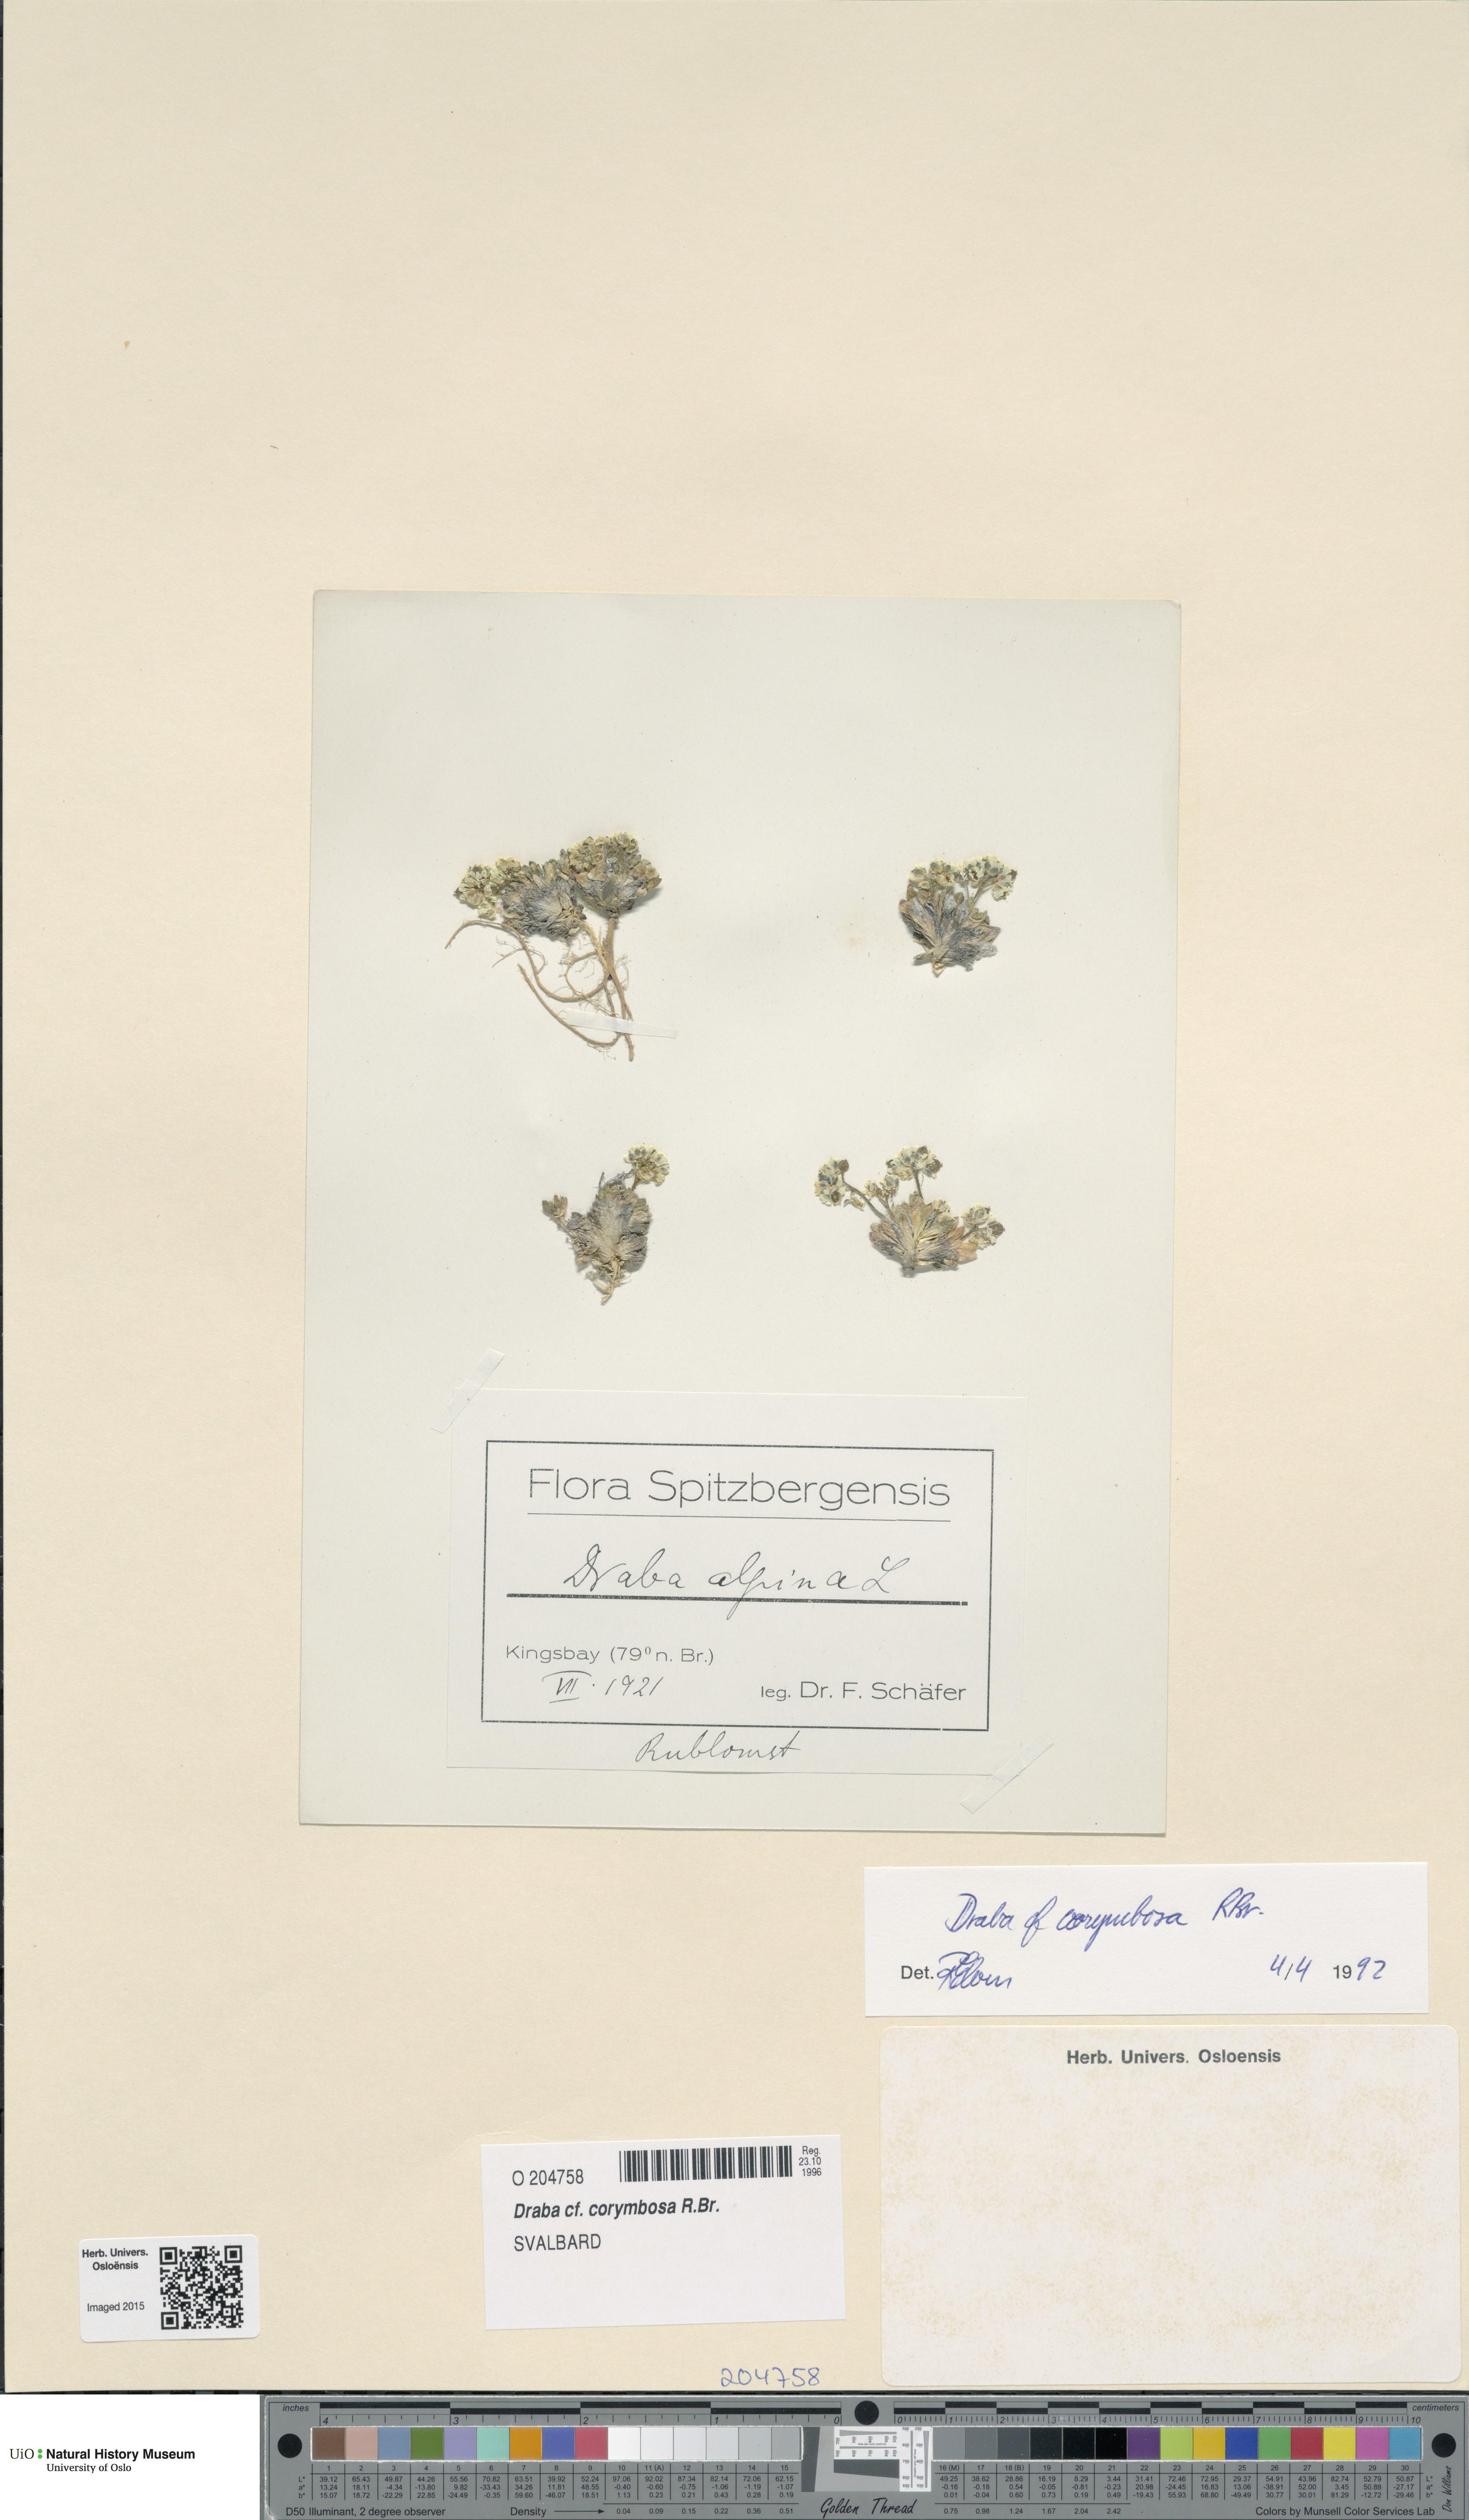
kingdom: Plantae
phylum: Tracheophyta
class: Magnoliopsida
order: Brassicales
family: Brassicaceae
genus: Draba
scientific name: Draba corymbosa
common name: Cushion whitlow-grass
